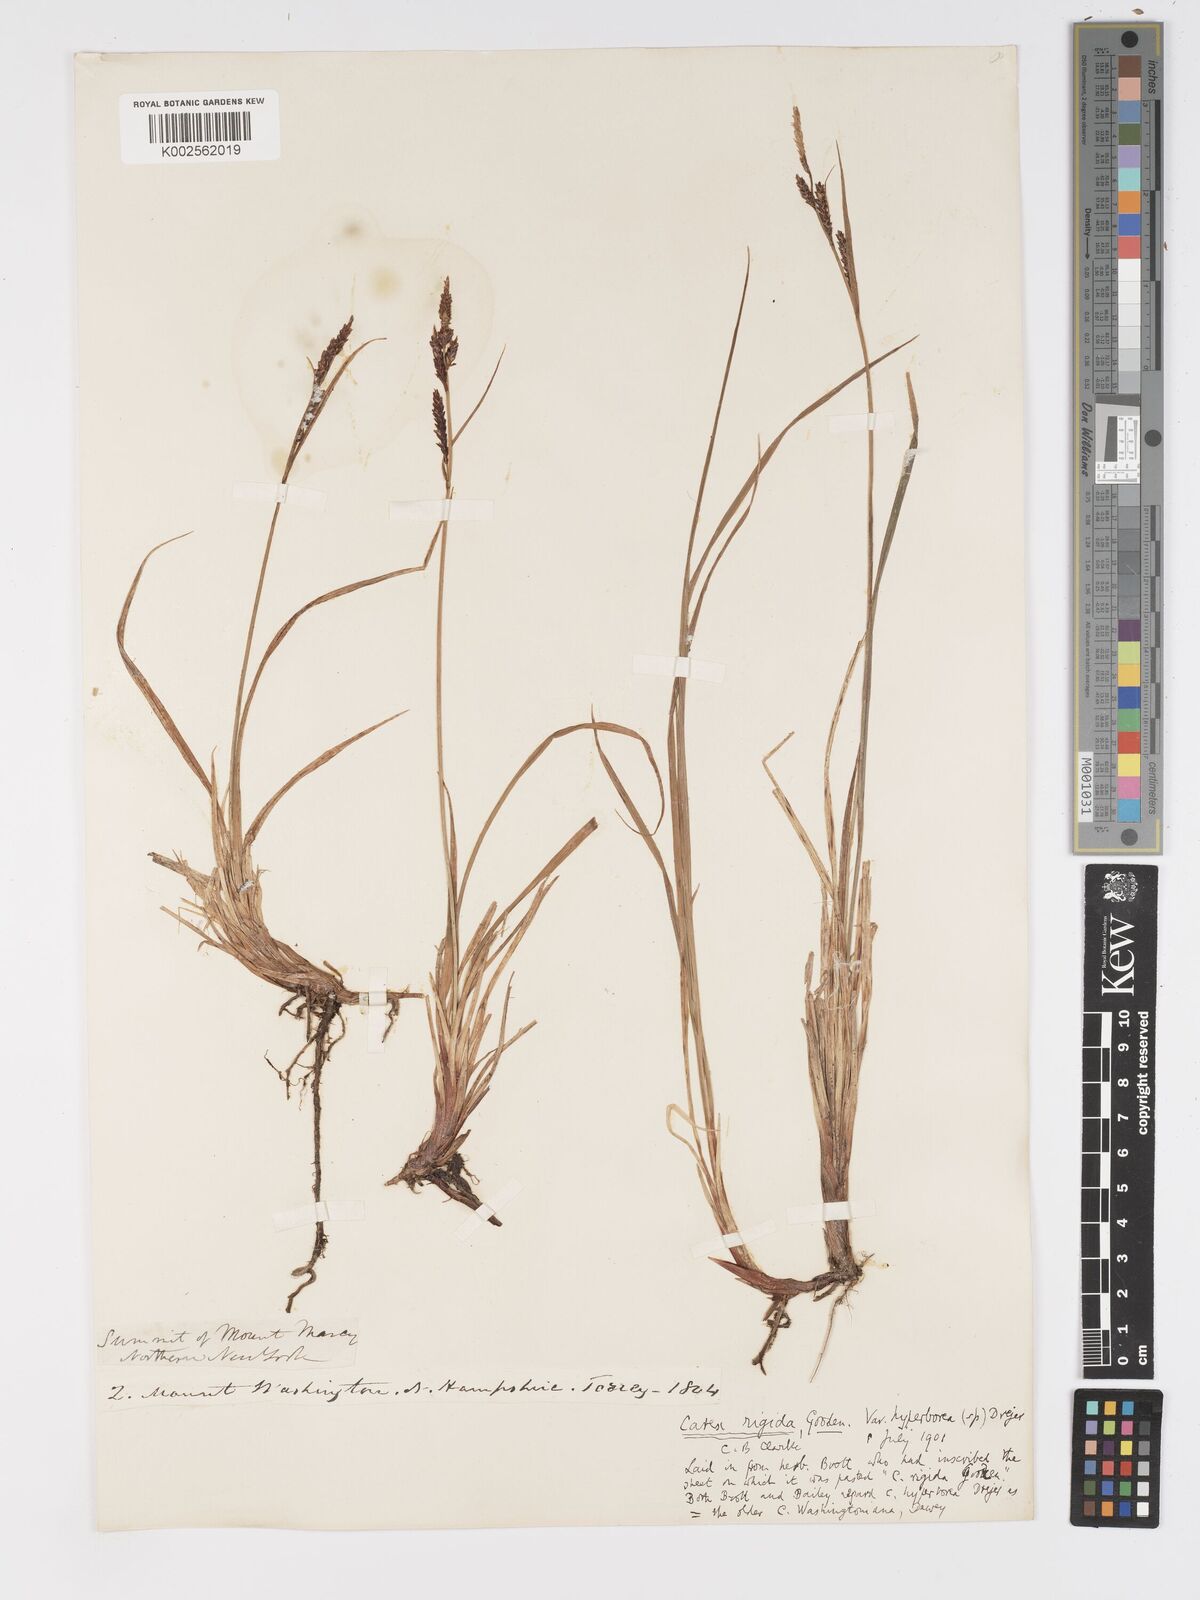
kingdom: Plantae
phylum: Tracheophyta
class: Liliopsida
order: Poales
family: Cyperaceae
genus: Carex
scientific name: Carex bigelowii
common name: Stiff sedge
